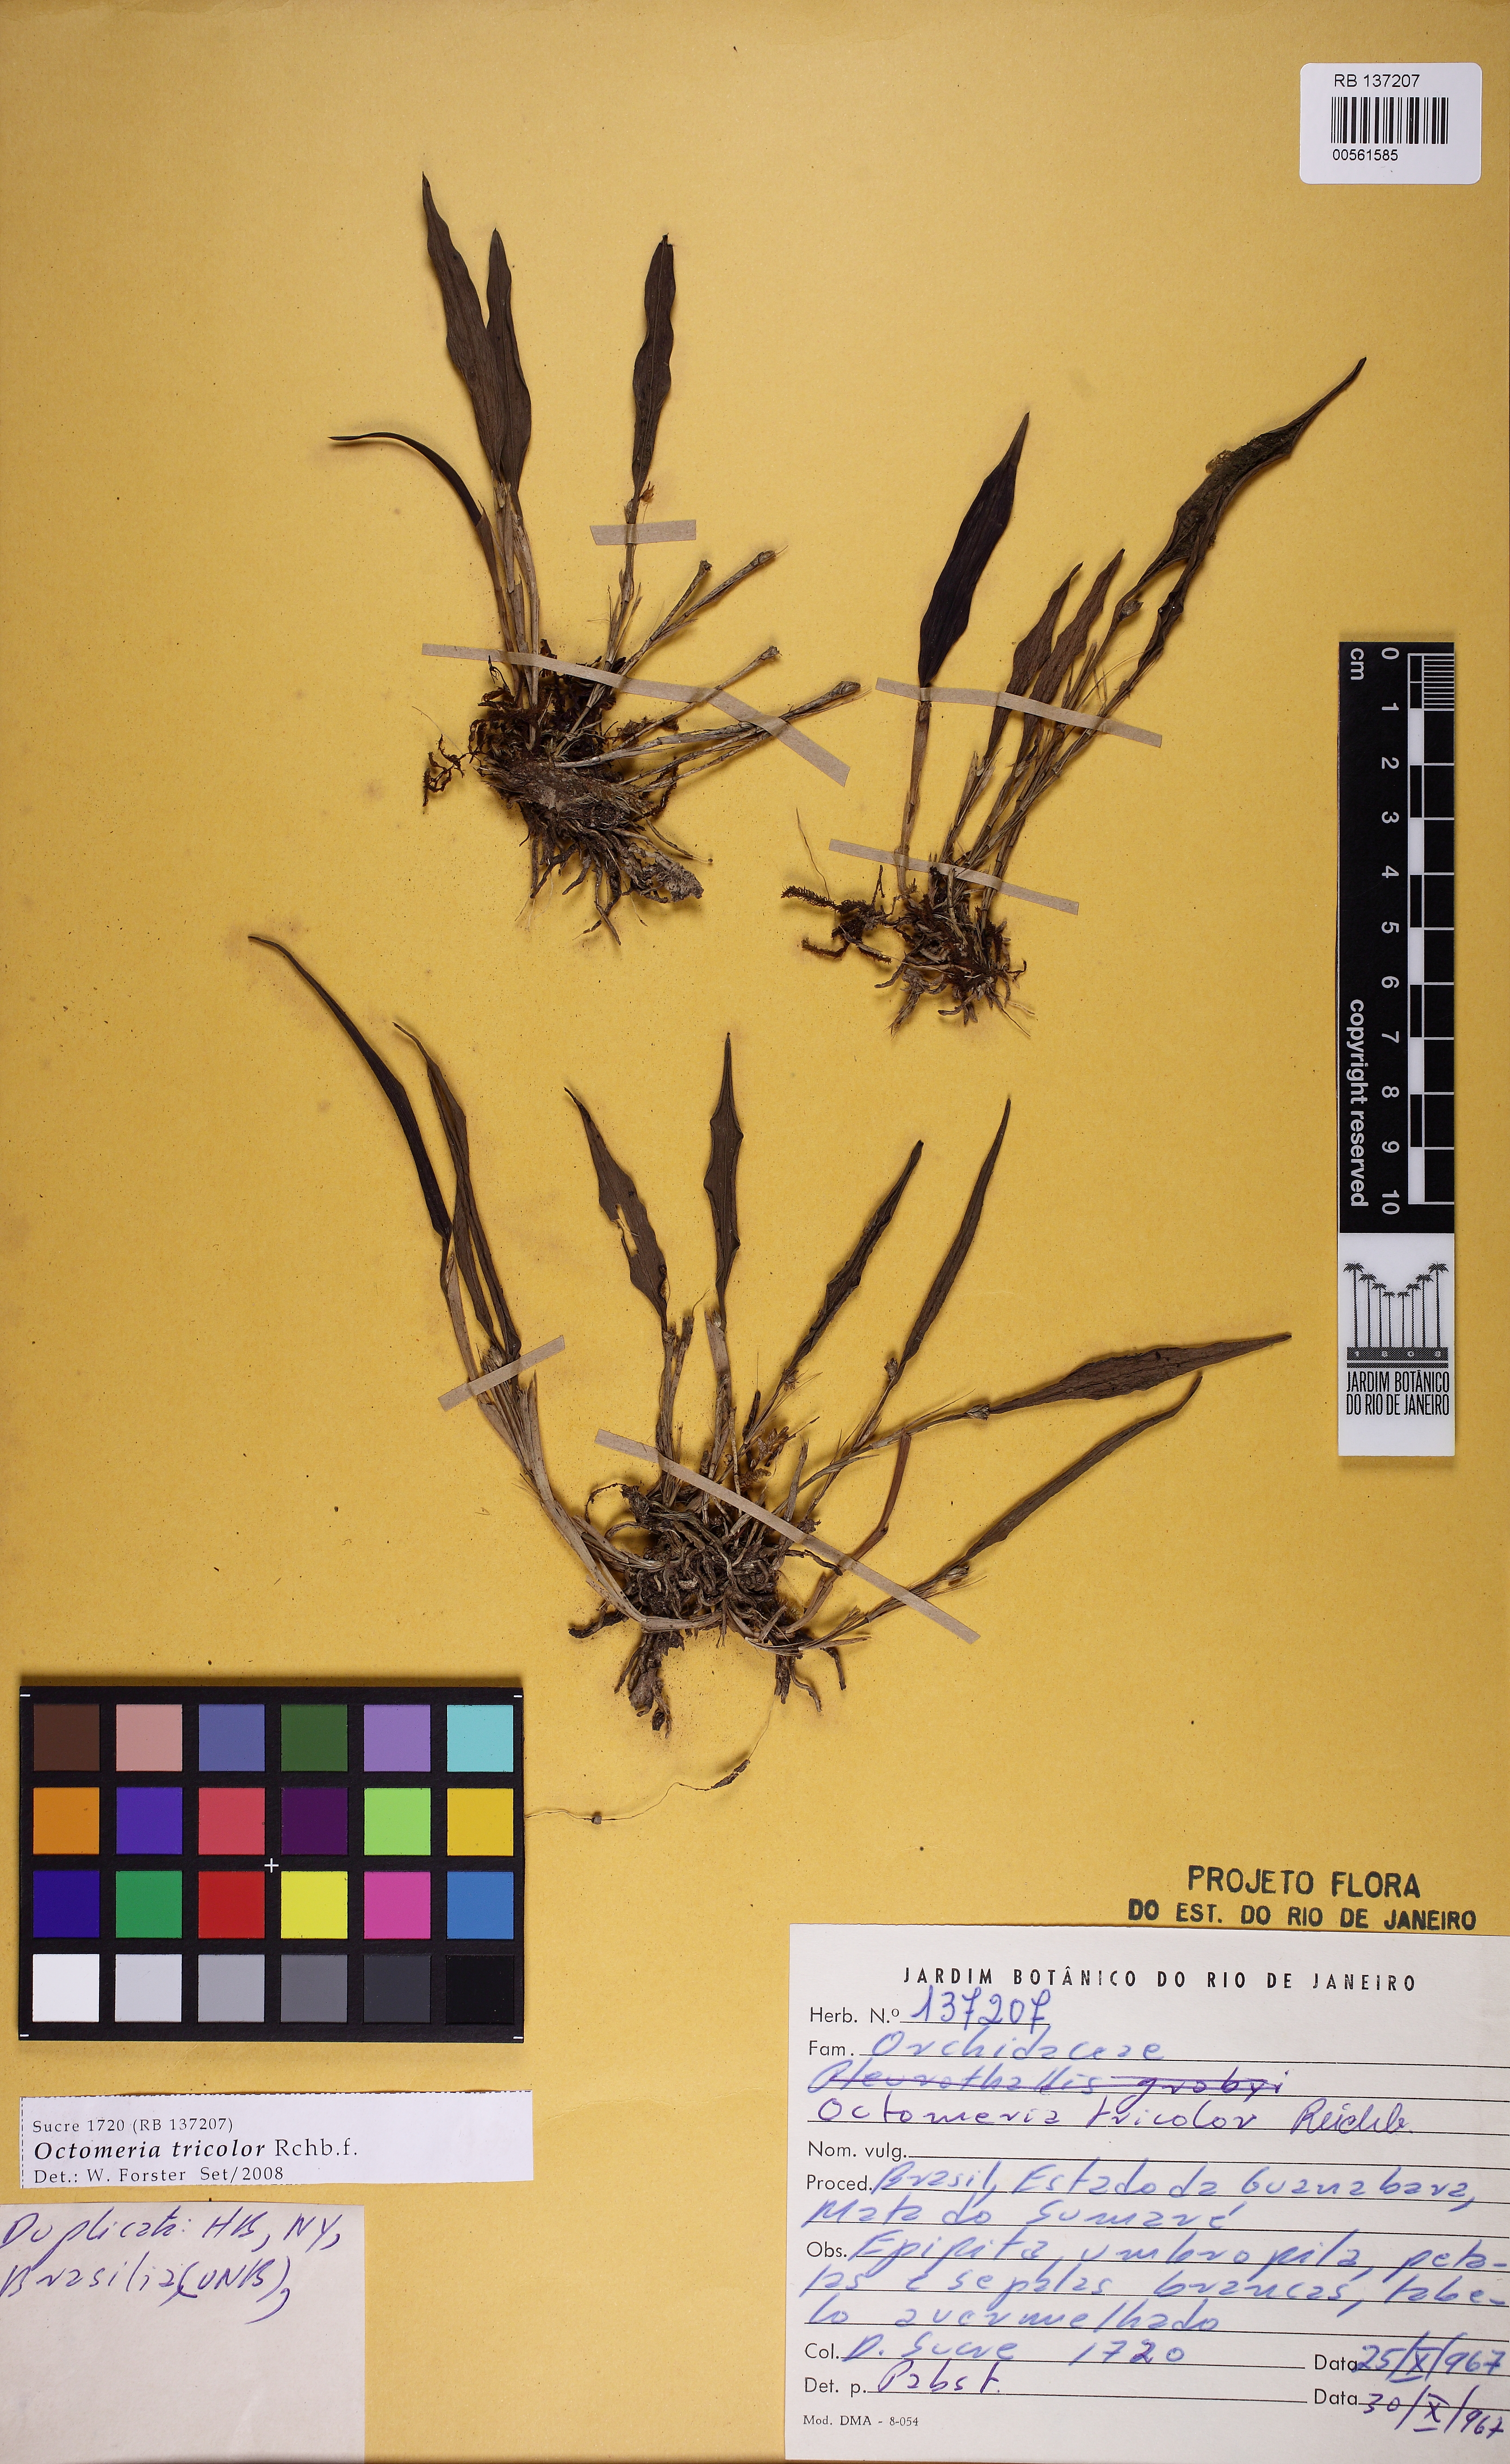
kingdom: Plantae
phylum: Tracheophyta
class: Liliopsida
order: Asparagales
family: Orchidaceae
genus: Octomeria
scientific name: Octomeria tricolor
